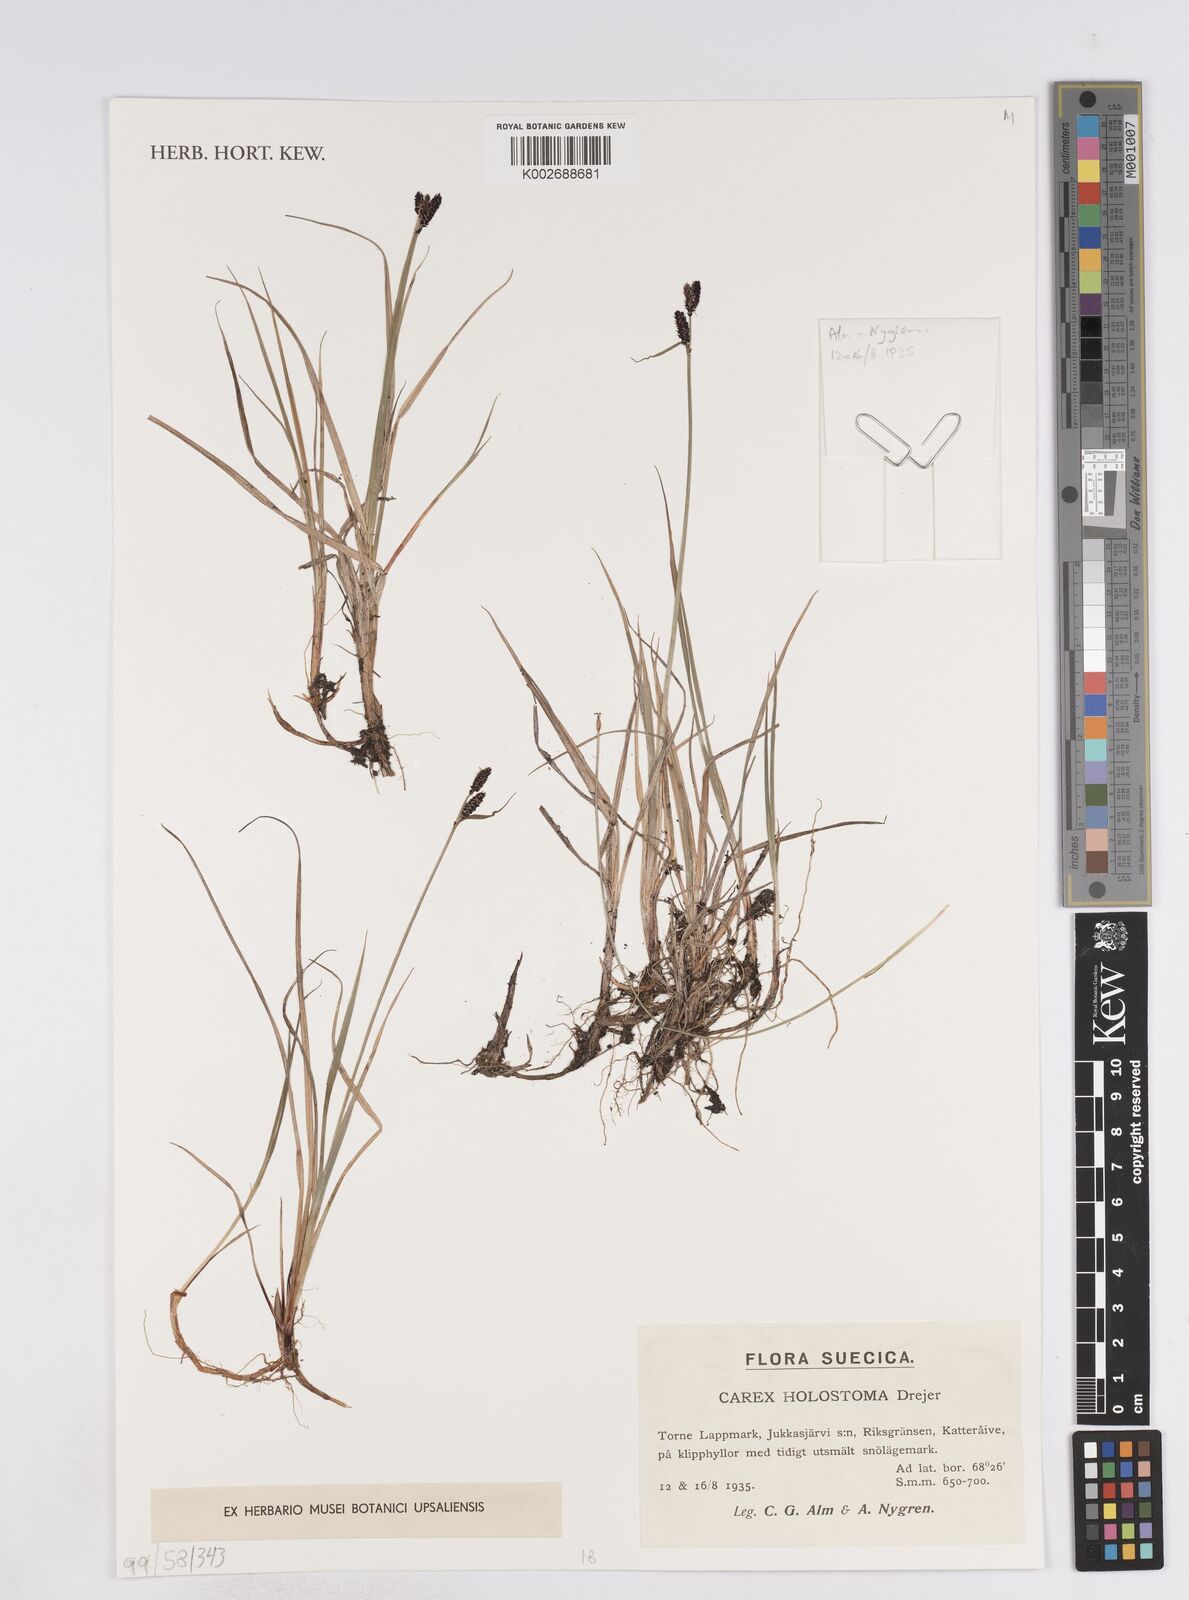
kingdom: Plantae
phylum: Tracheophyta
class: Liliopsida
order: Poales
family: Cyperaceae
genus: Carex
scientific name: Carex holostoma
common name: Arctic marsh sedge
